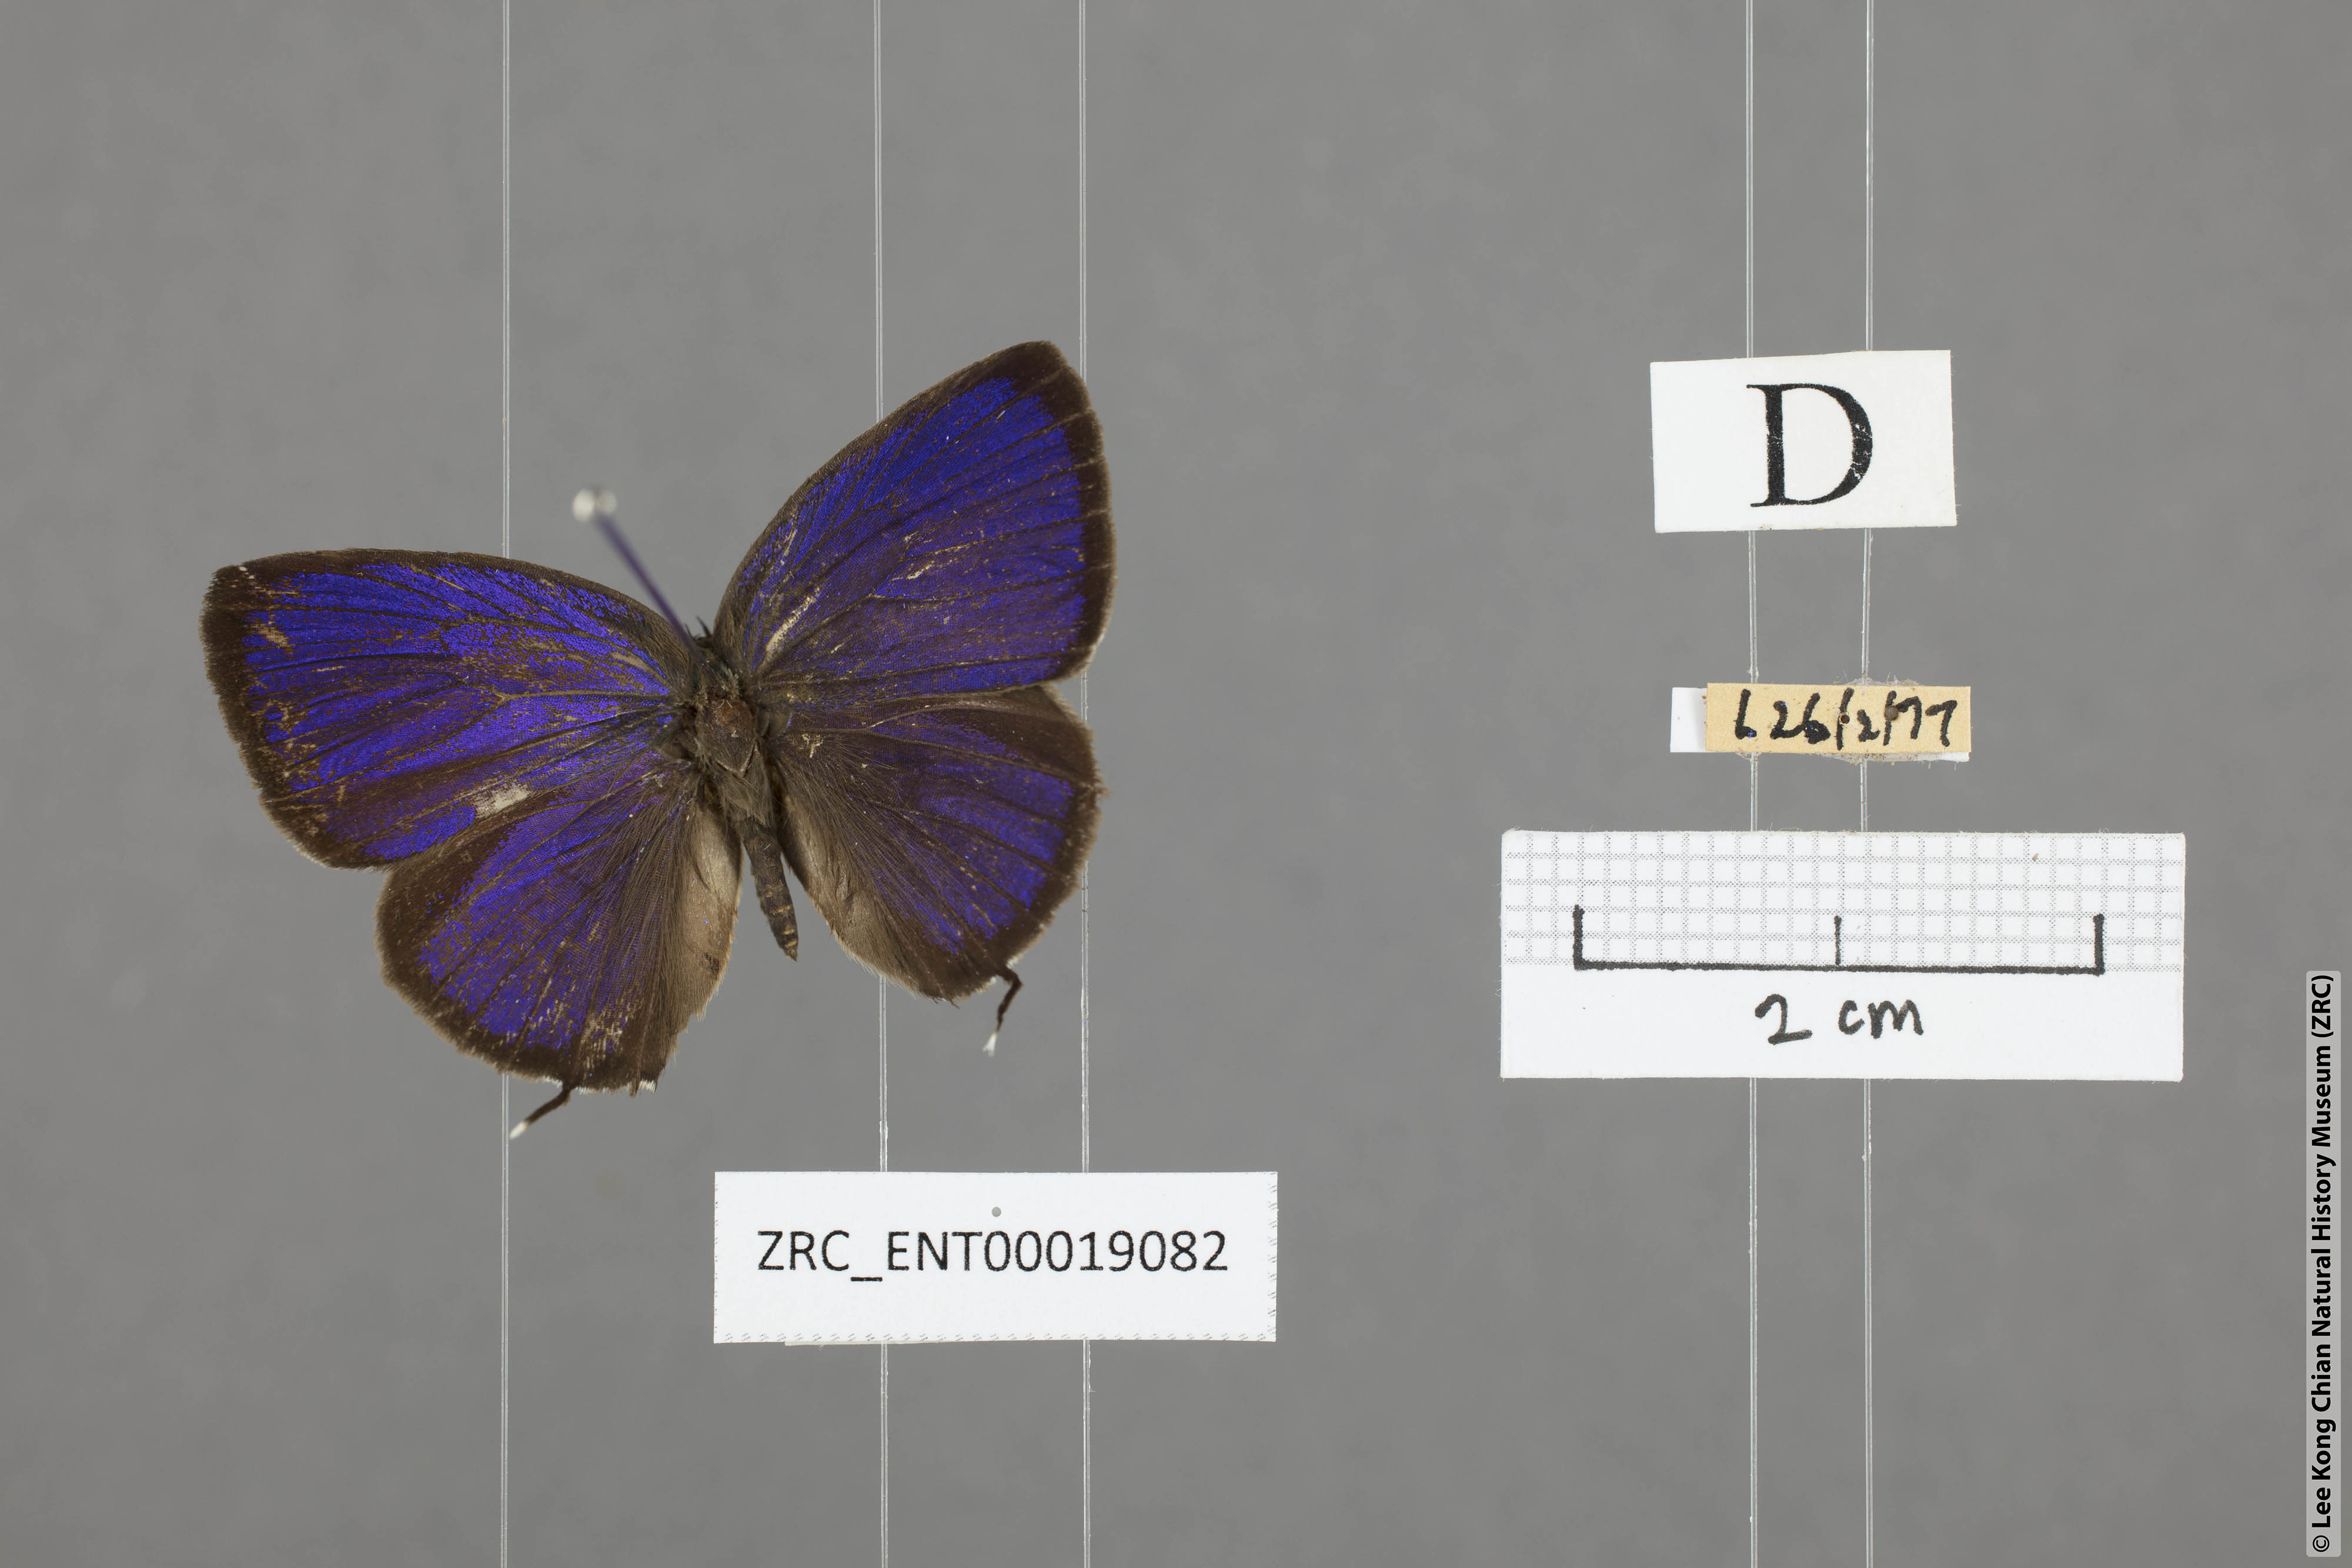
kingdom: Animalia
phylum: Arthropoda
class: Insecta
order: Lepidoptera
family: Lycaenidae
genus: Arhopala
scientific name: Arhopala alitaeus
